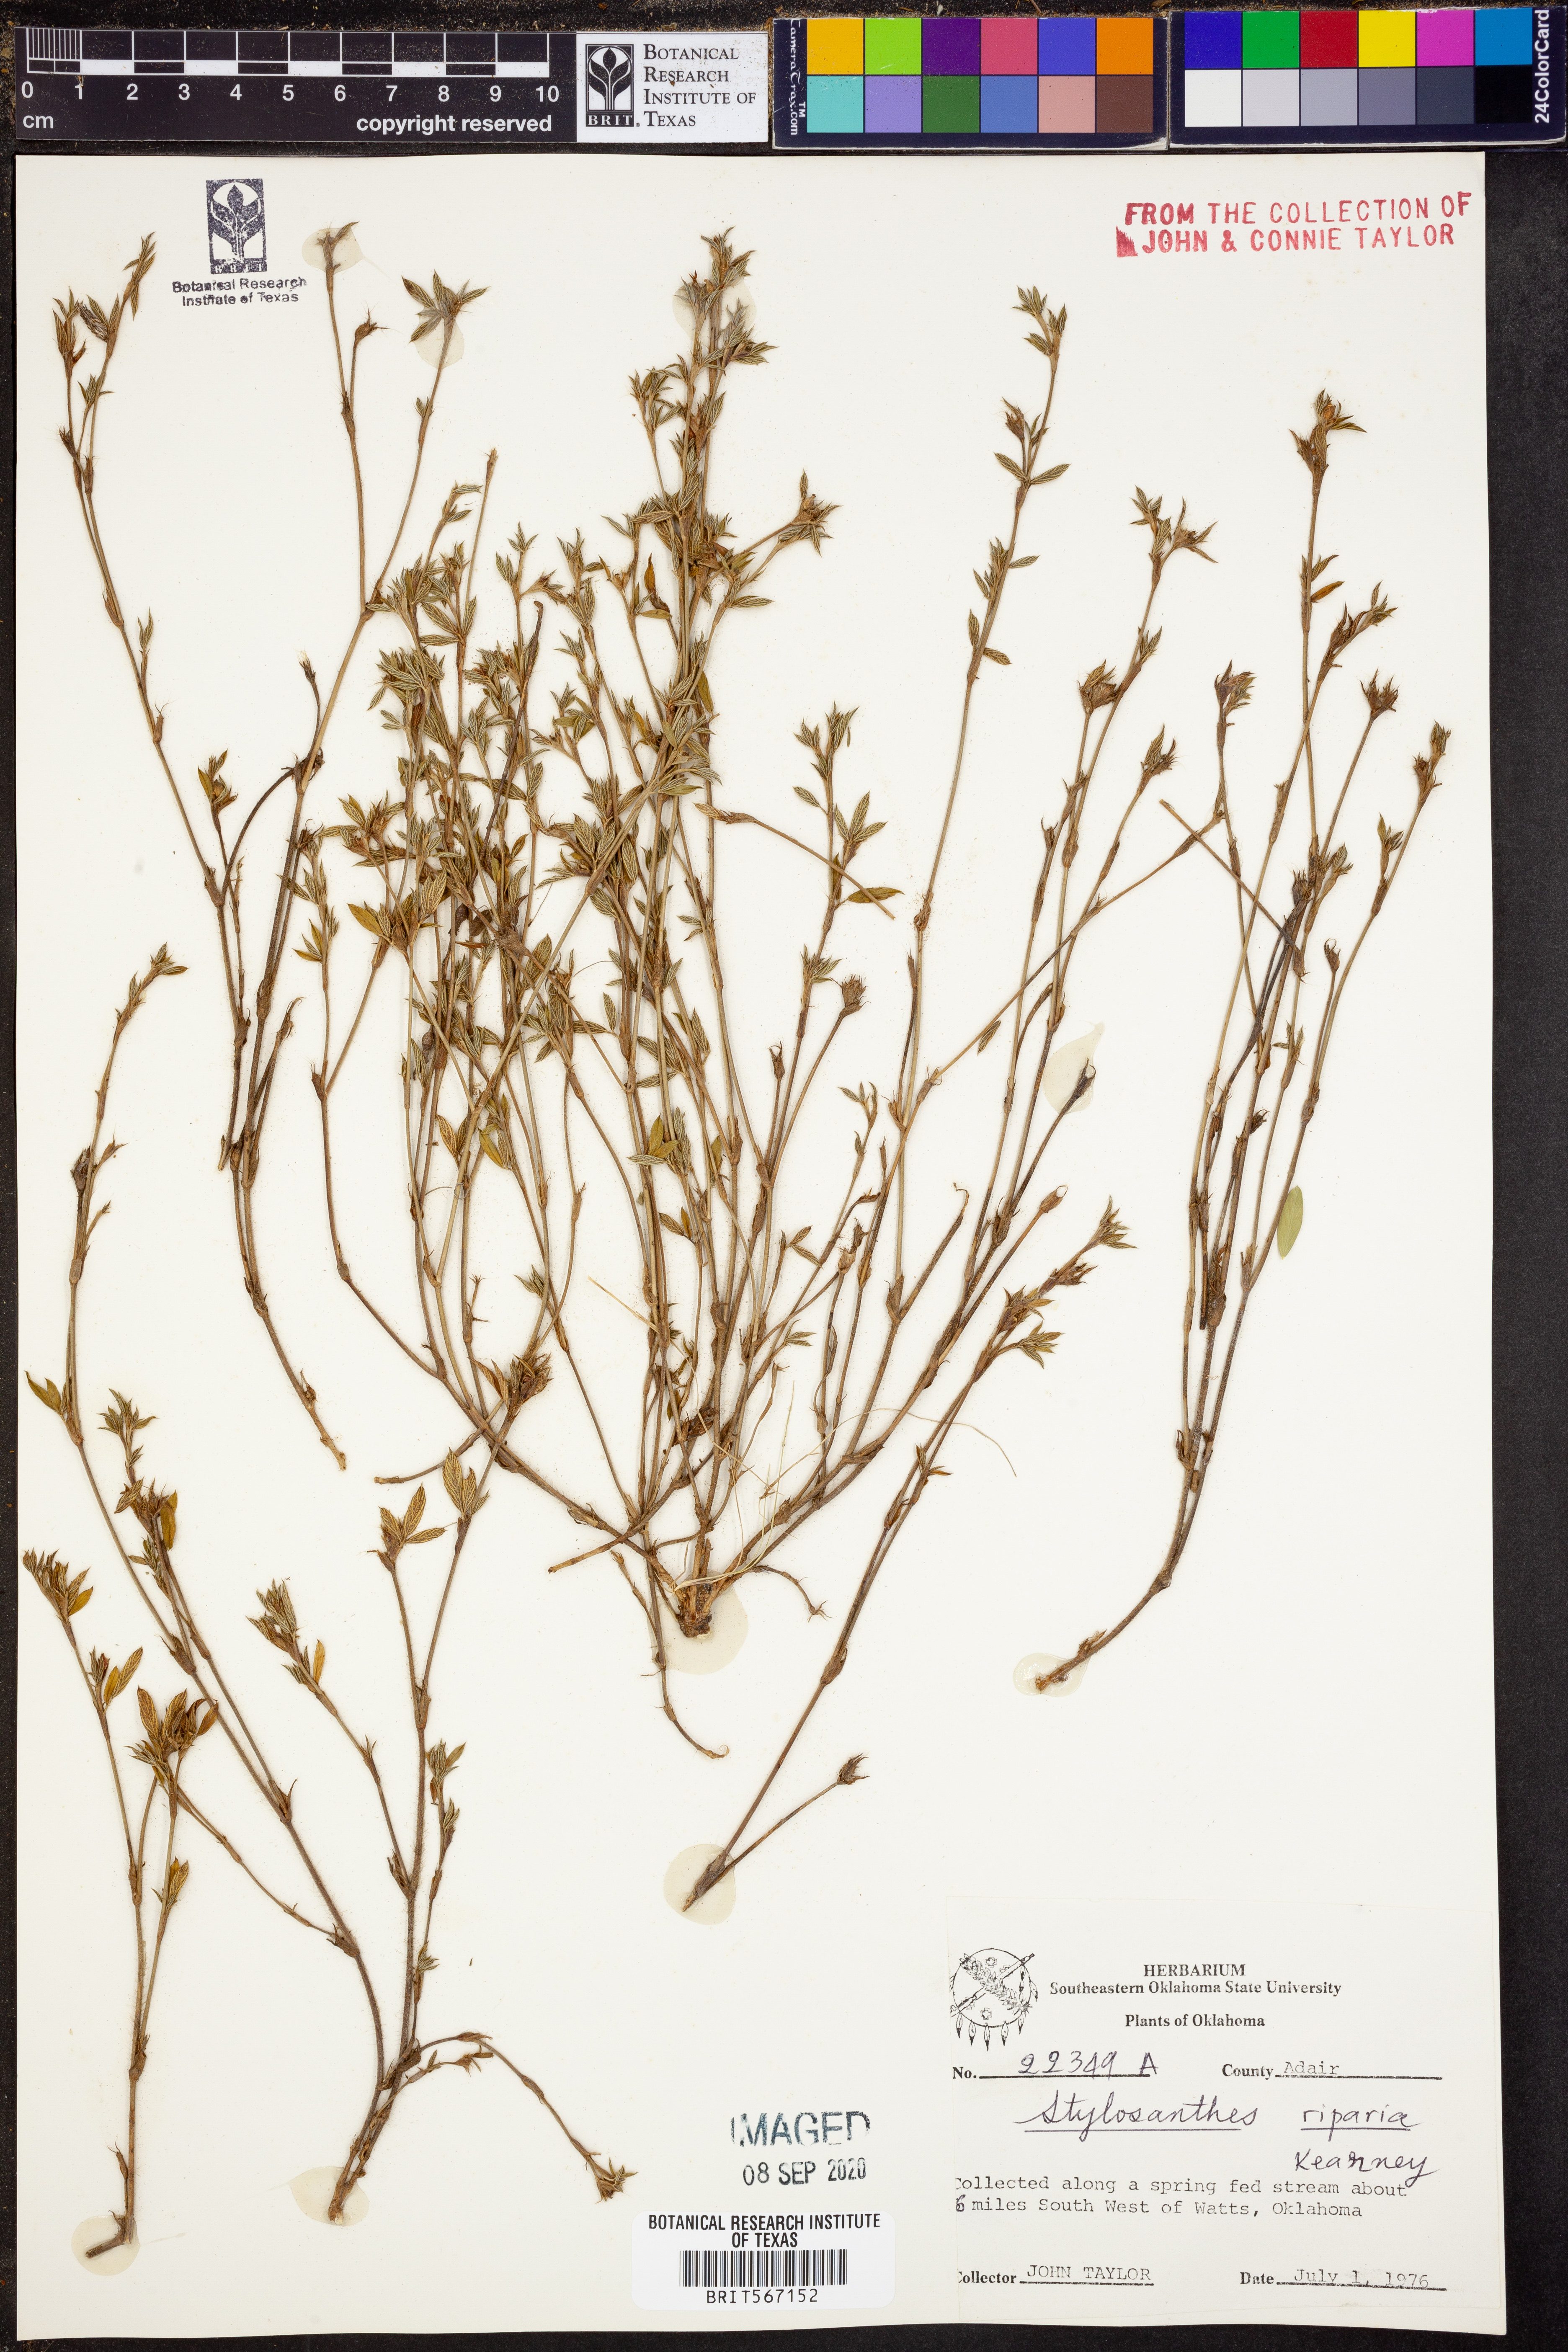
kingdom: Plantae
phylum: Tracheophyta
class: Magnoliopsida
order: Fabales
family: Fabaceae
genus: Stylosanthes
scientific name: Stylosanthes biflora
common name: Two-flower pencil-flower
